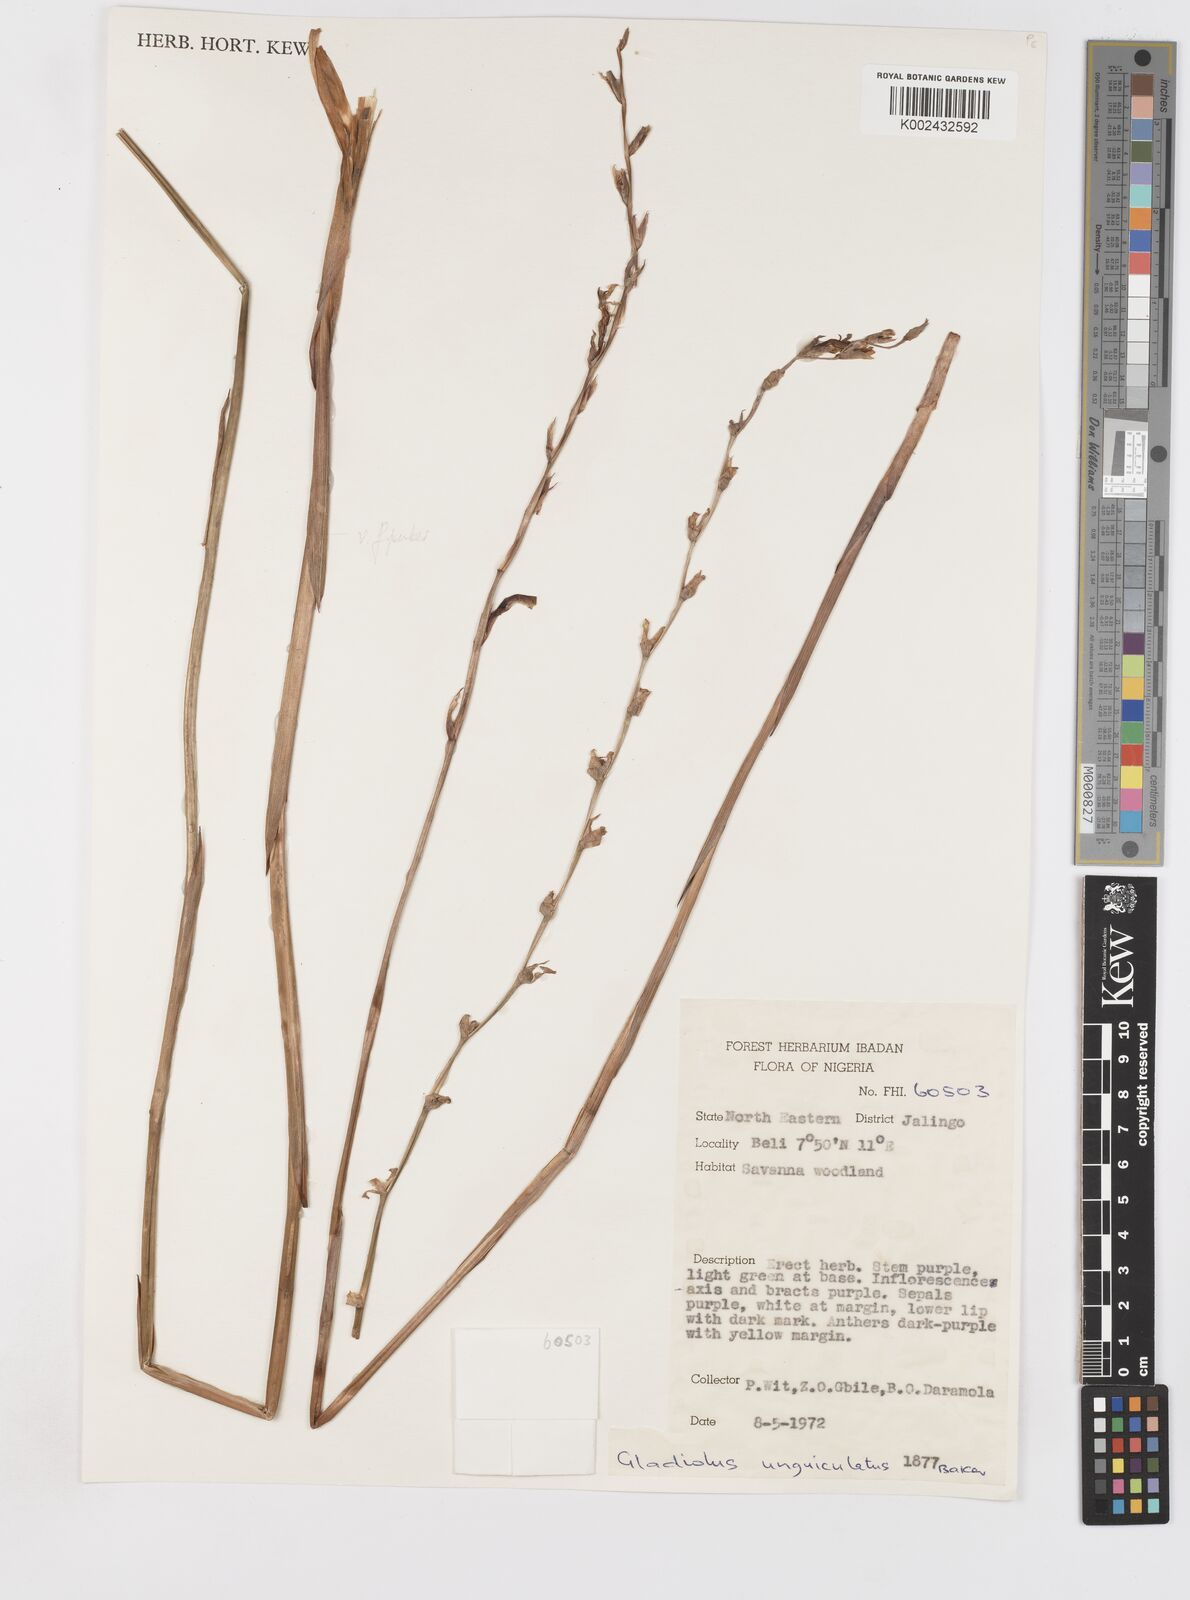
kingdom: Plantae
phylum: Tracheophyta
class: Liliopsida
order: Asparagales
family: Iridaceae
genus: Gladiolus
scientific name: Gladiolus unguiculatus
